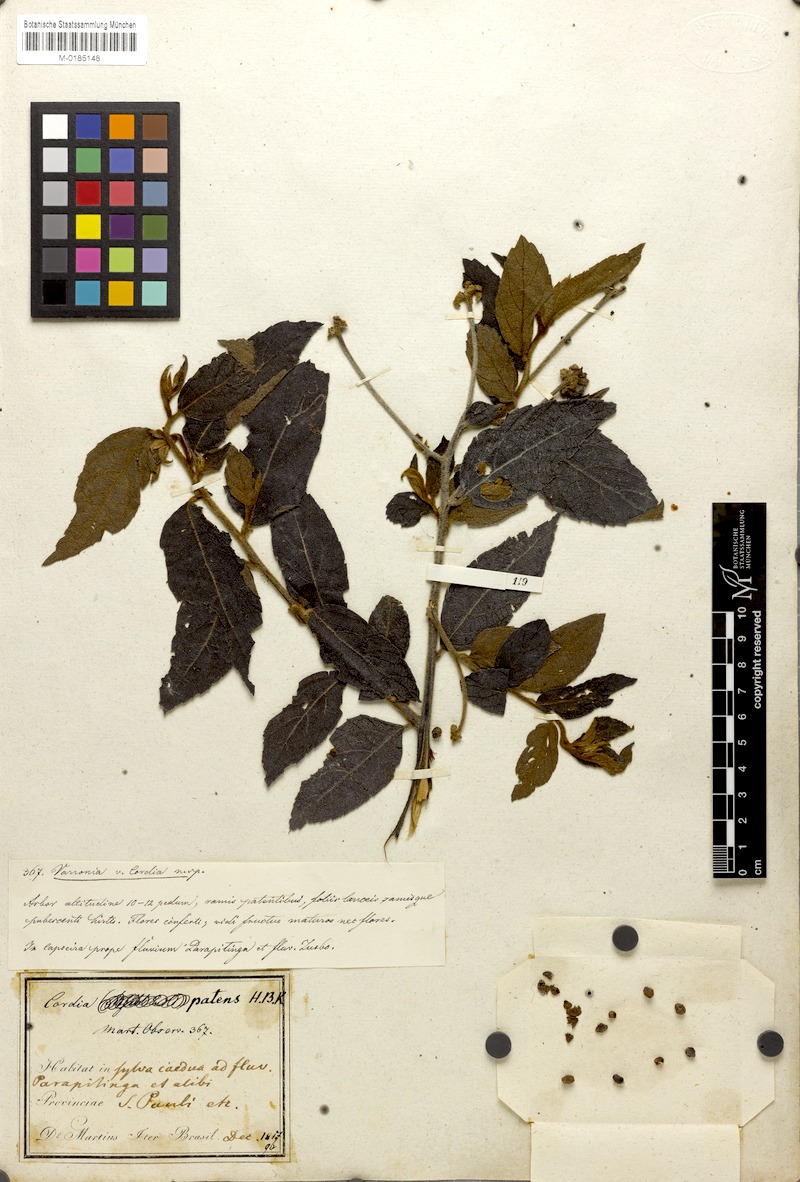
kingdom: Plantae
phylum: Tracheophyta
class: Magnoliopsida
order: Boraginales
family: Cordiaceae
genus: Varronia
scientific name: Varronia polycephala
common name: Black-sage
